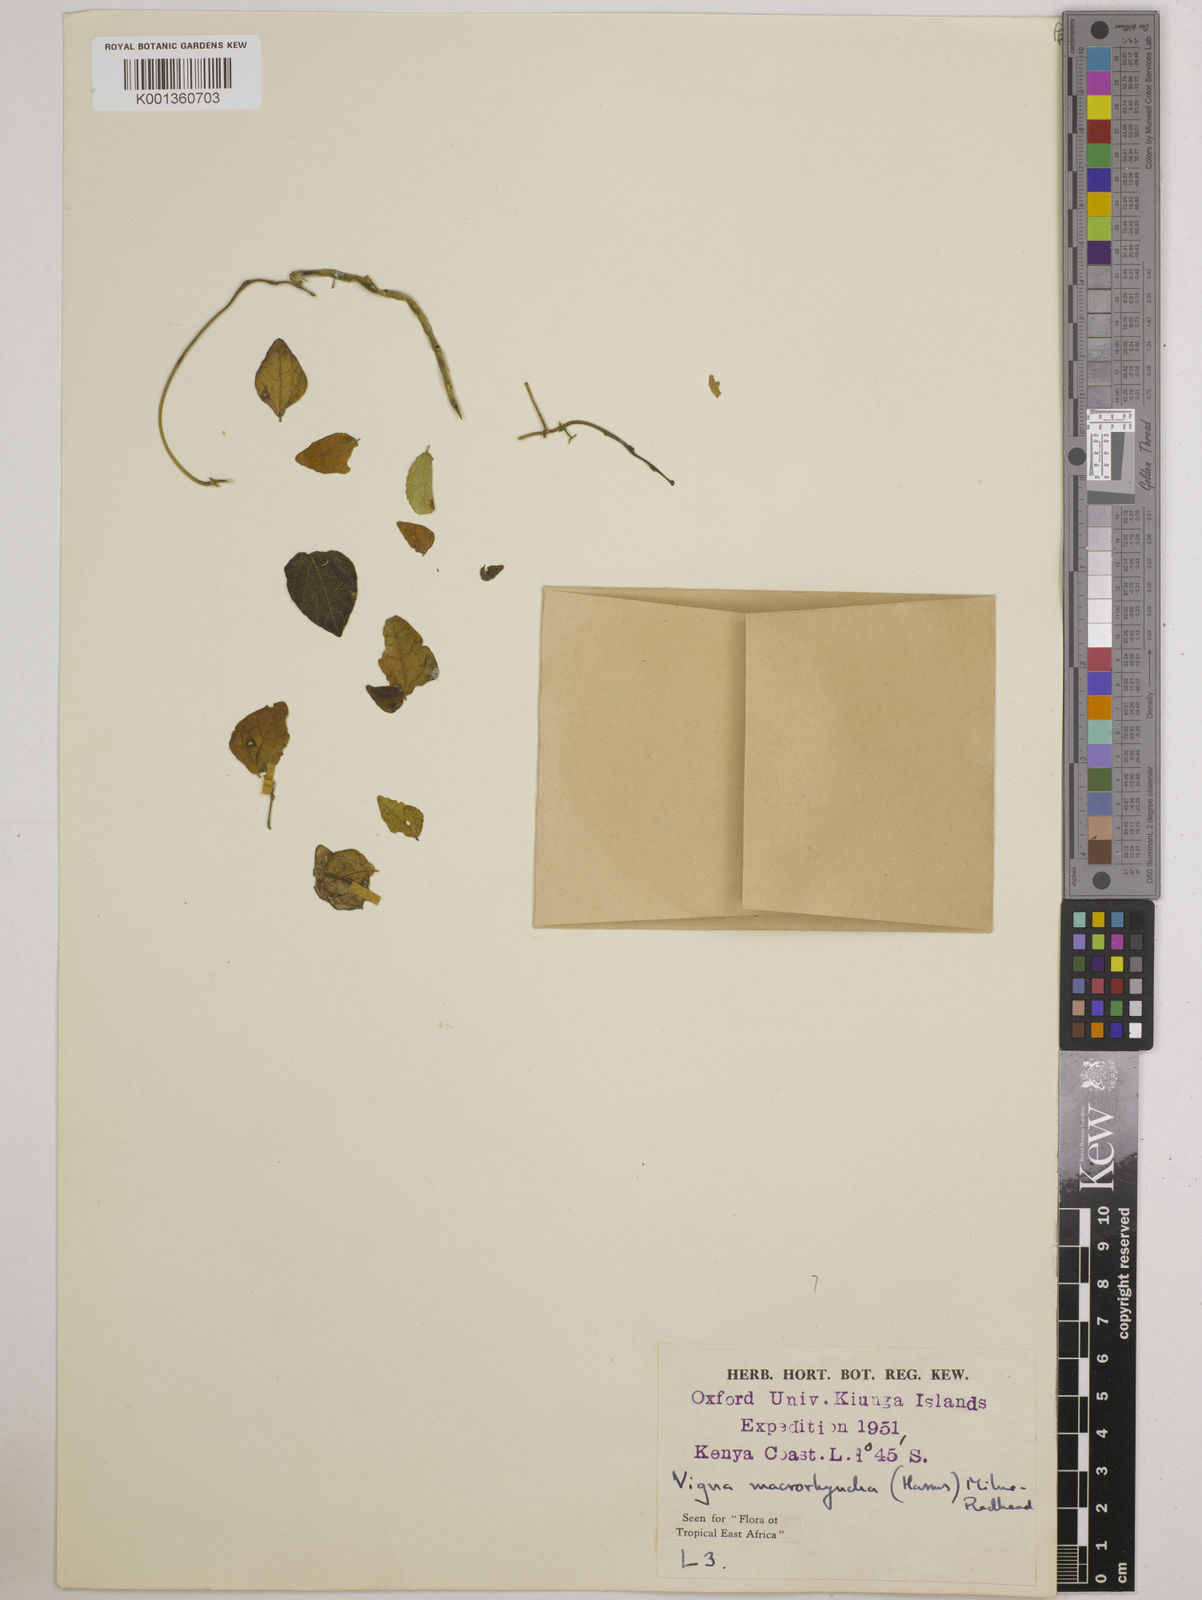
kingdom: Plantae
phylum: Tracheophyta
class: Magnoliopsida
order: Fabales
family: Fabaceae
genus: Wajira
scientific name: Wajira grahamiana
